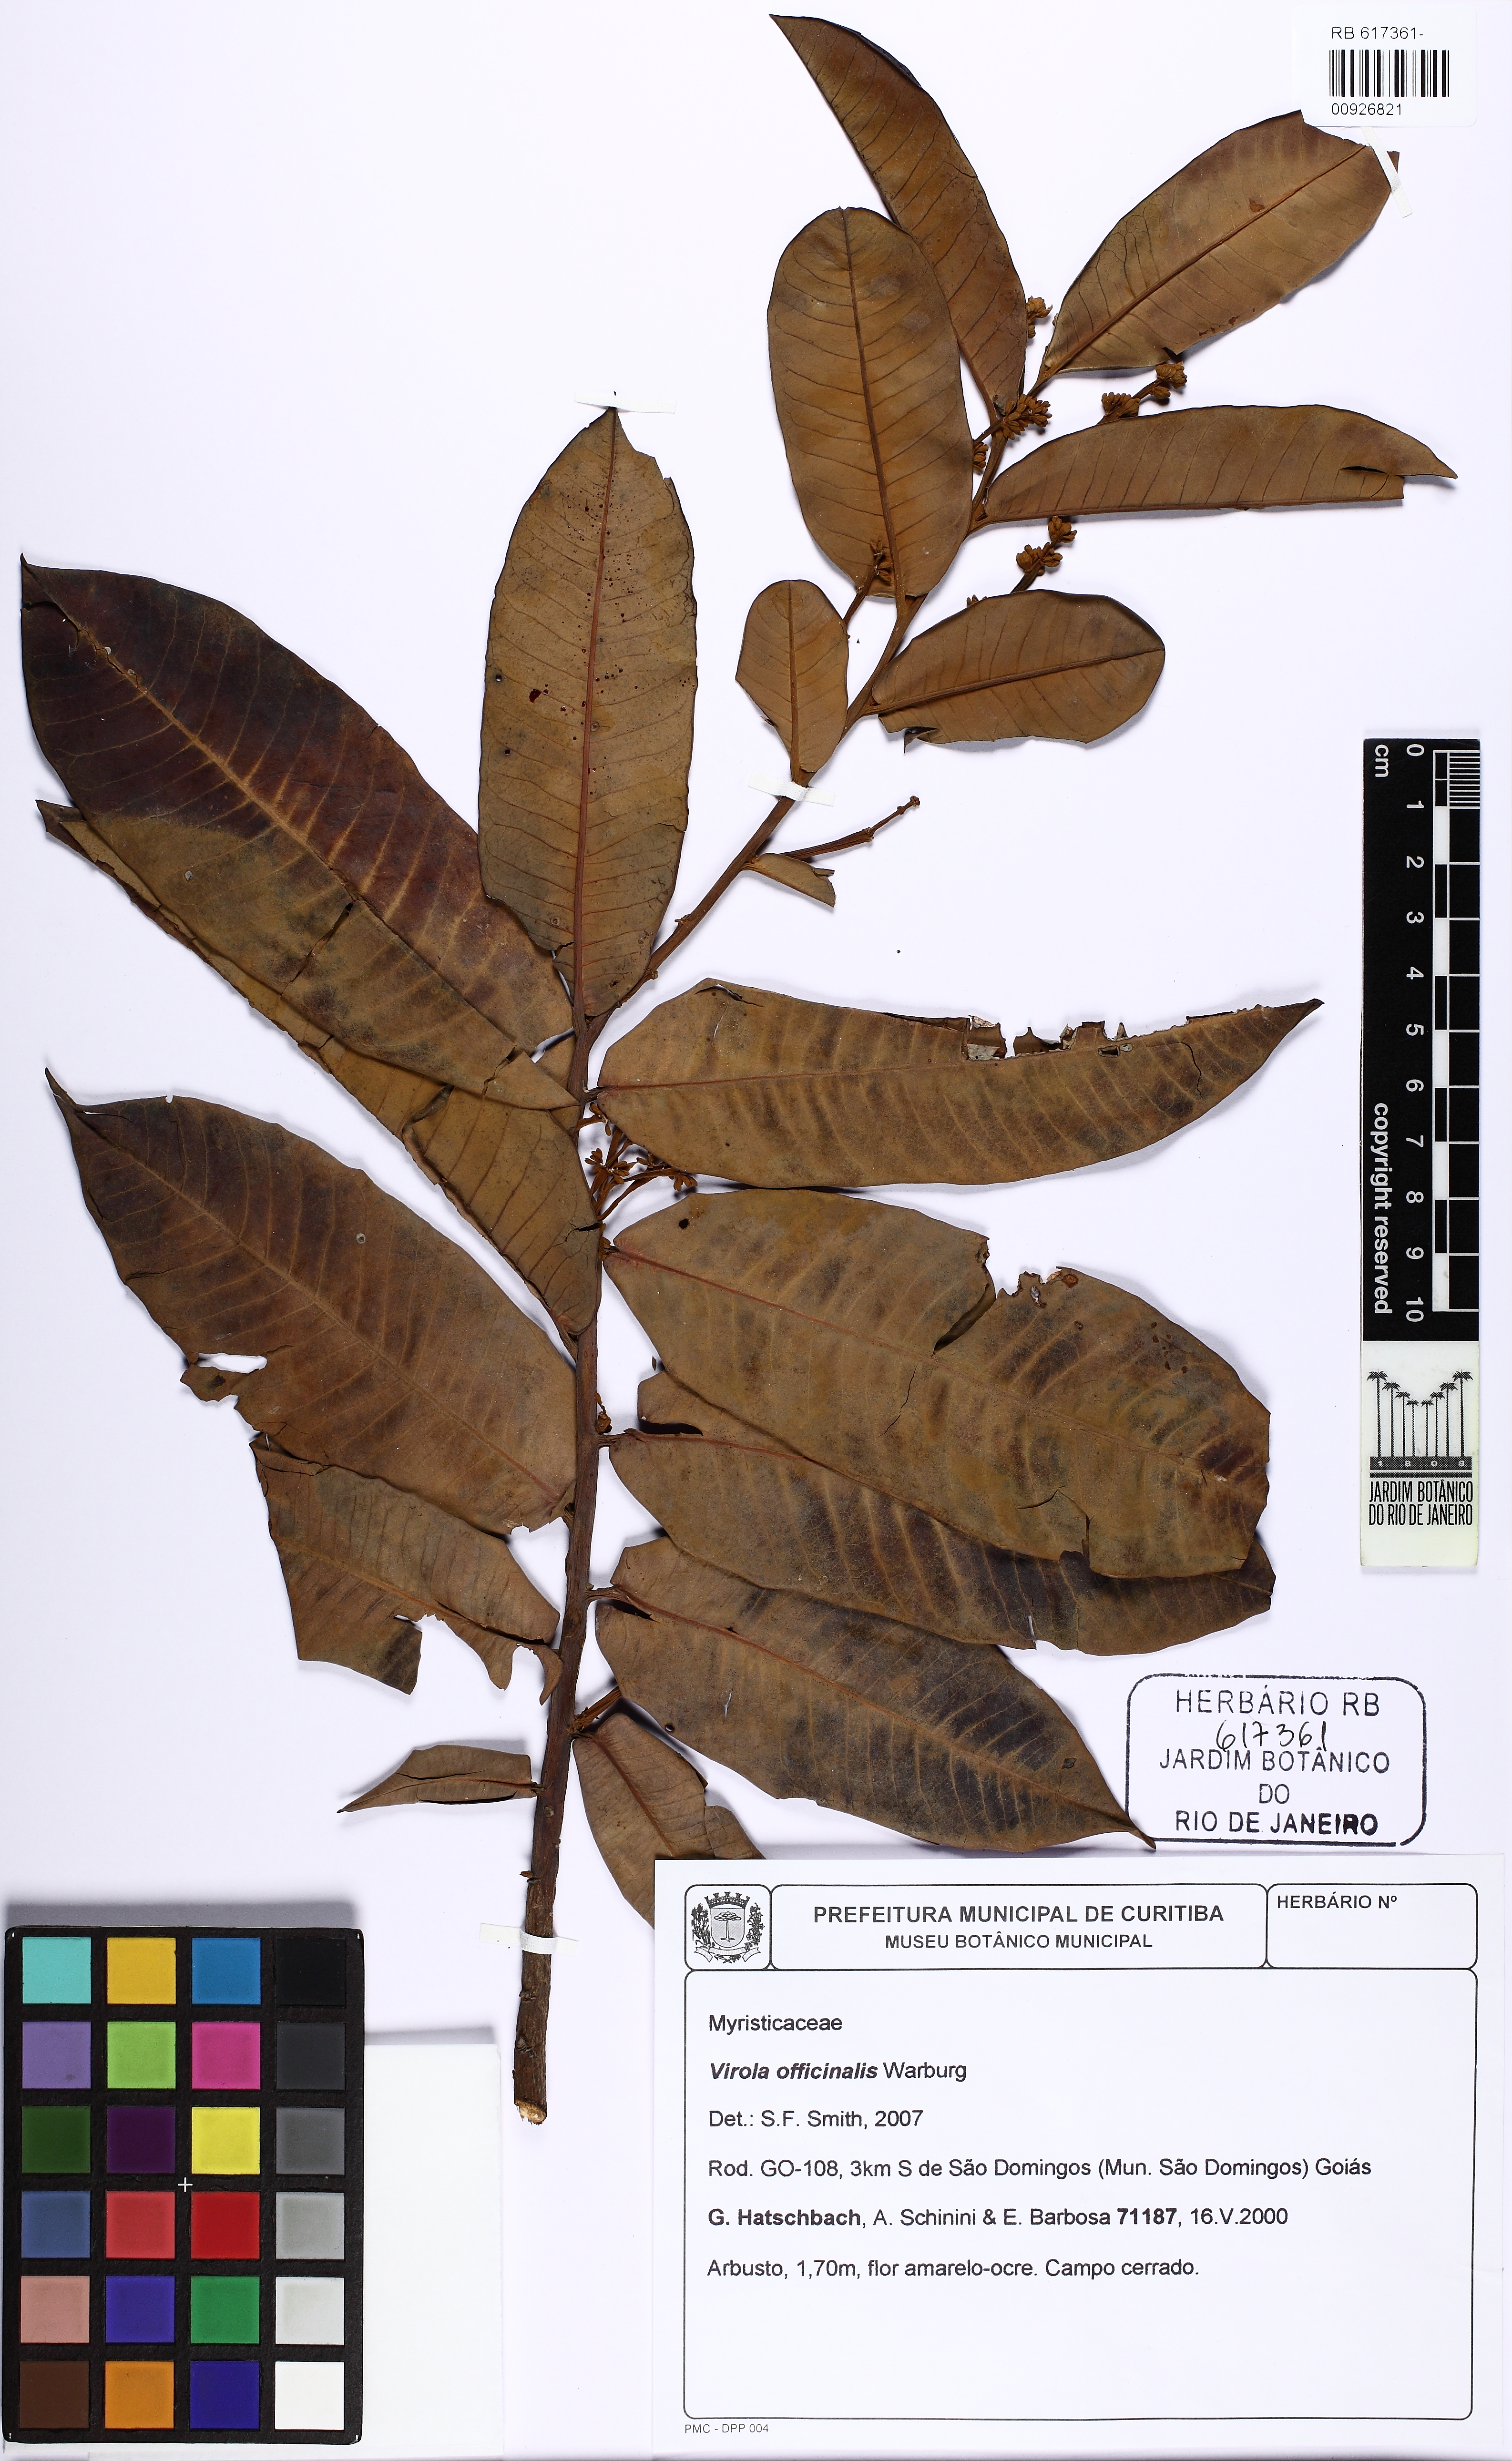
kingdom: Plantae
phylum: Tracheophyta
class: Magnoliopsida
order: Magnoliales
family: Myristicaceae
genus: Virola
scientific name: Virola officinalis
